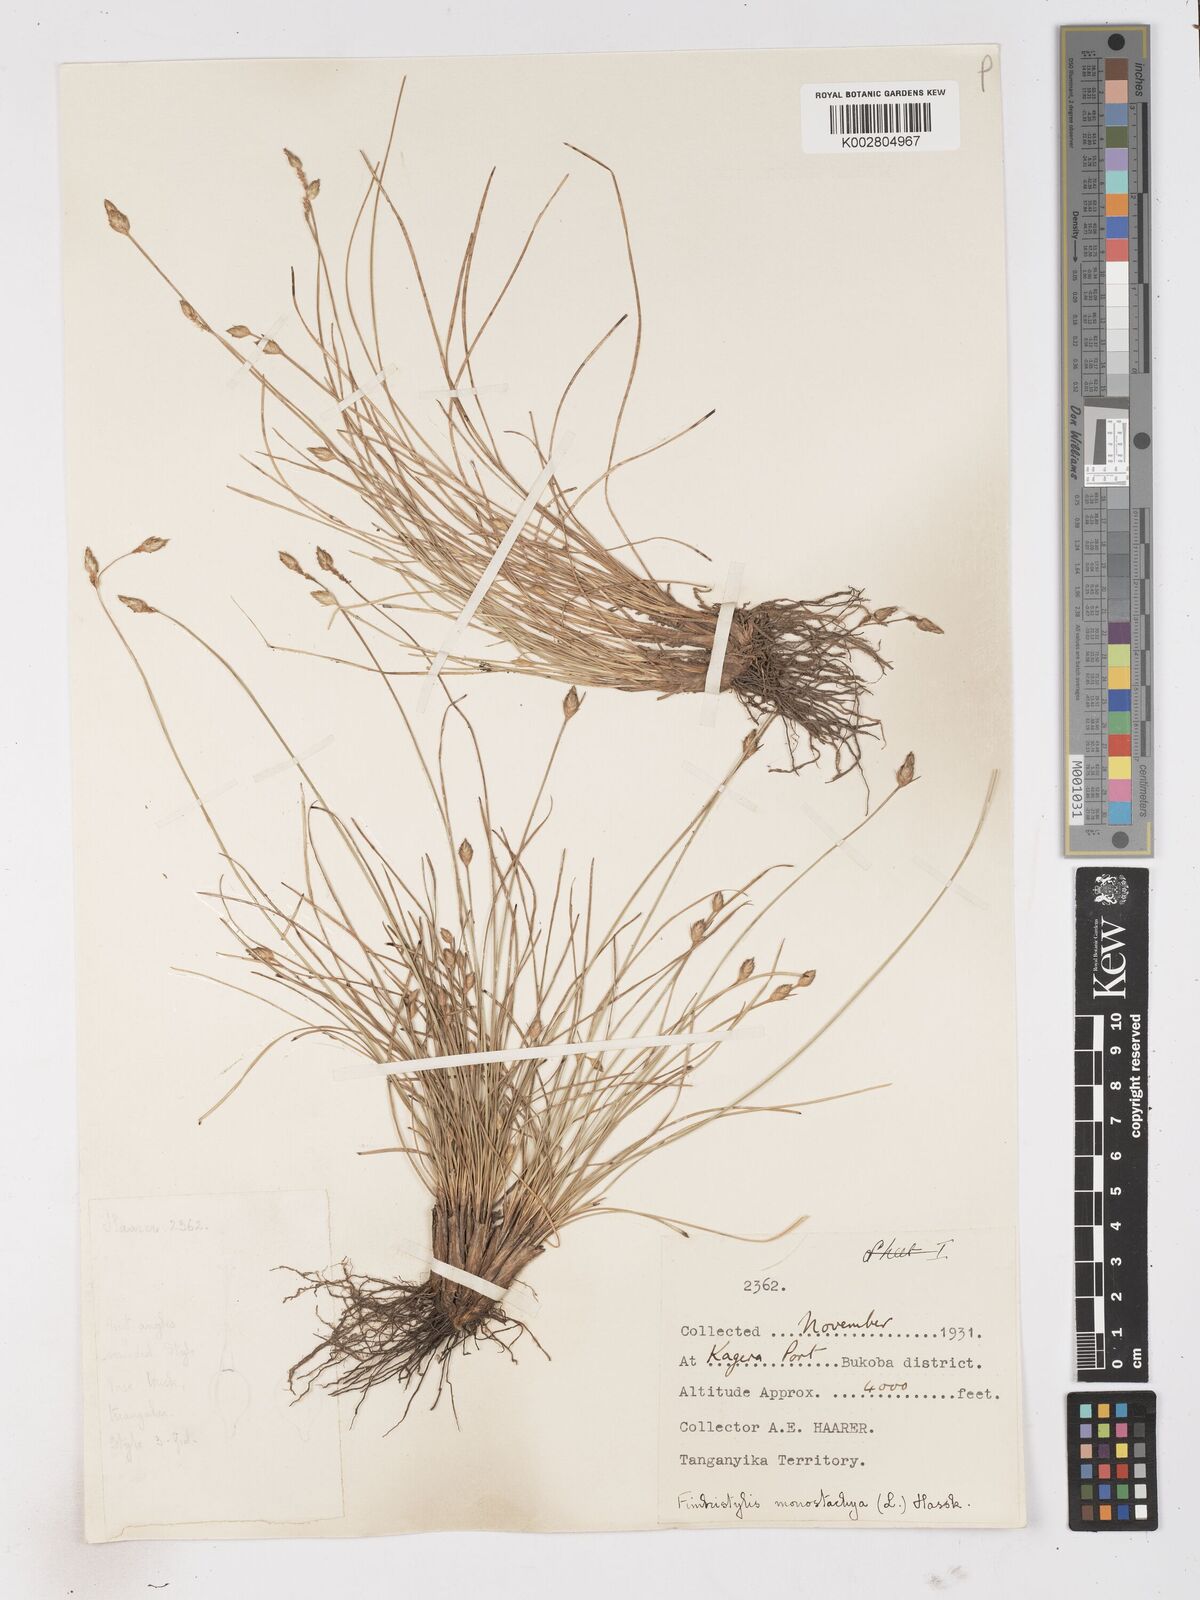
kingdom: Plantae
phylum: Tracheophyta
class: Liliopsida
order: Poales
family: Cyperaceae
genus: Abildgaardia
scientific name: Abildgaardia ovata
